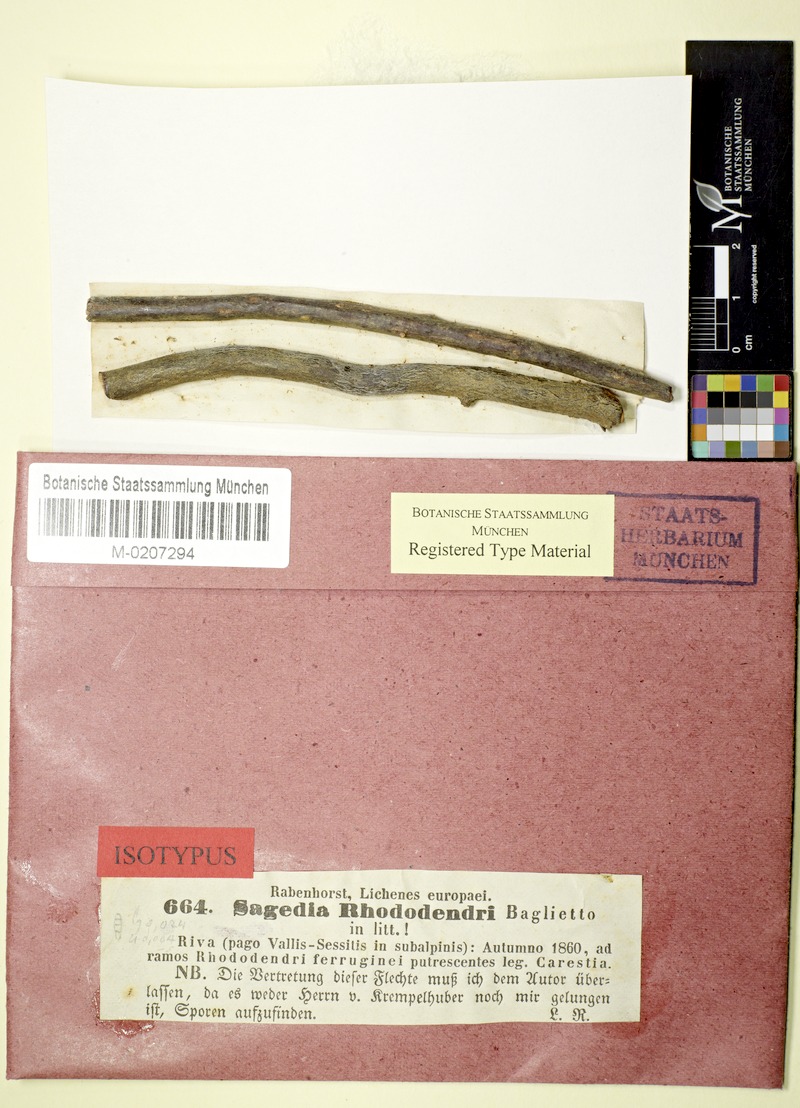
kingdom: Fungi
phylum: Ascomycota
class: Lecanoromycetes
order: Pertusariales
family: Pertusariaceae
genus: Porina
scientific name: Porina
